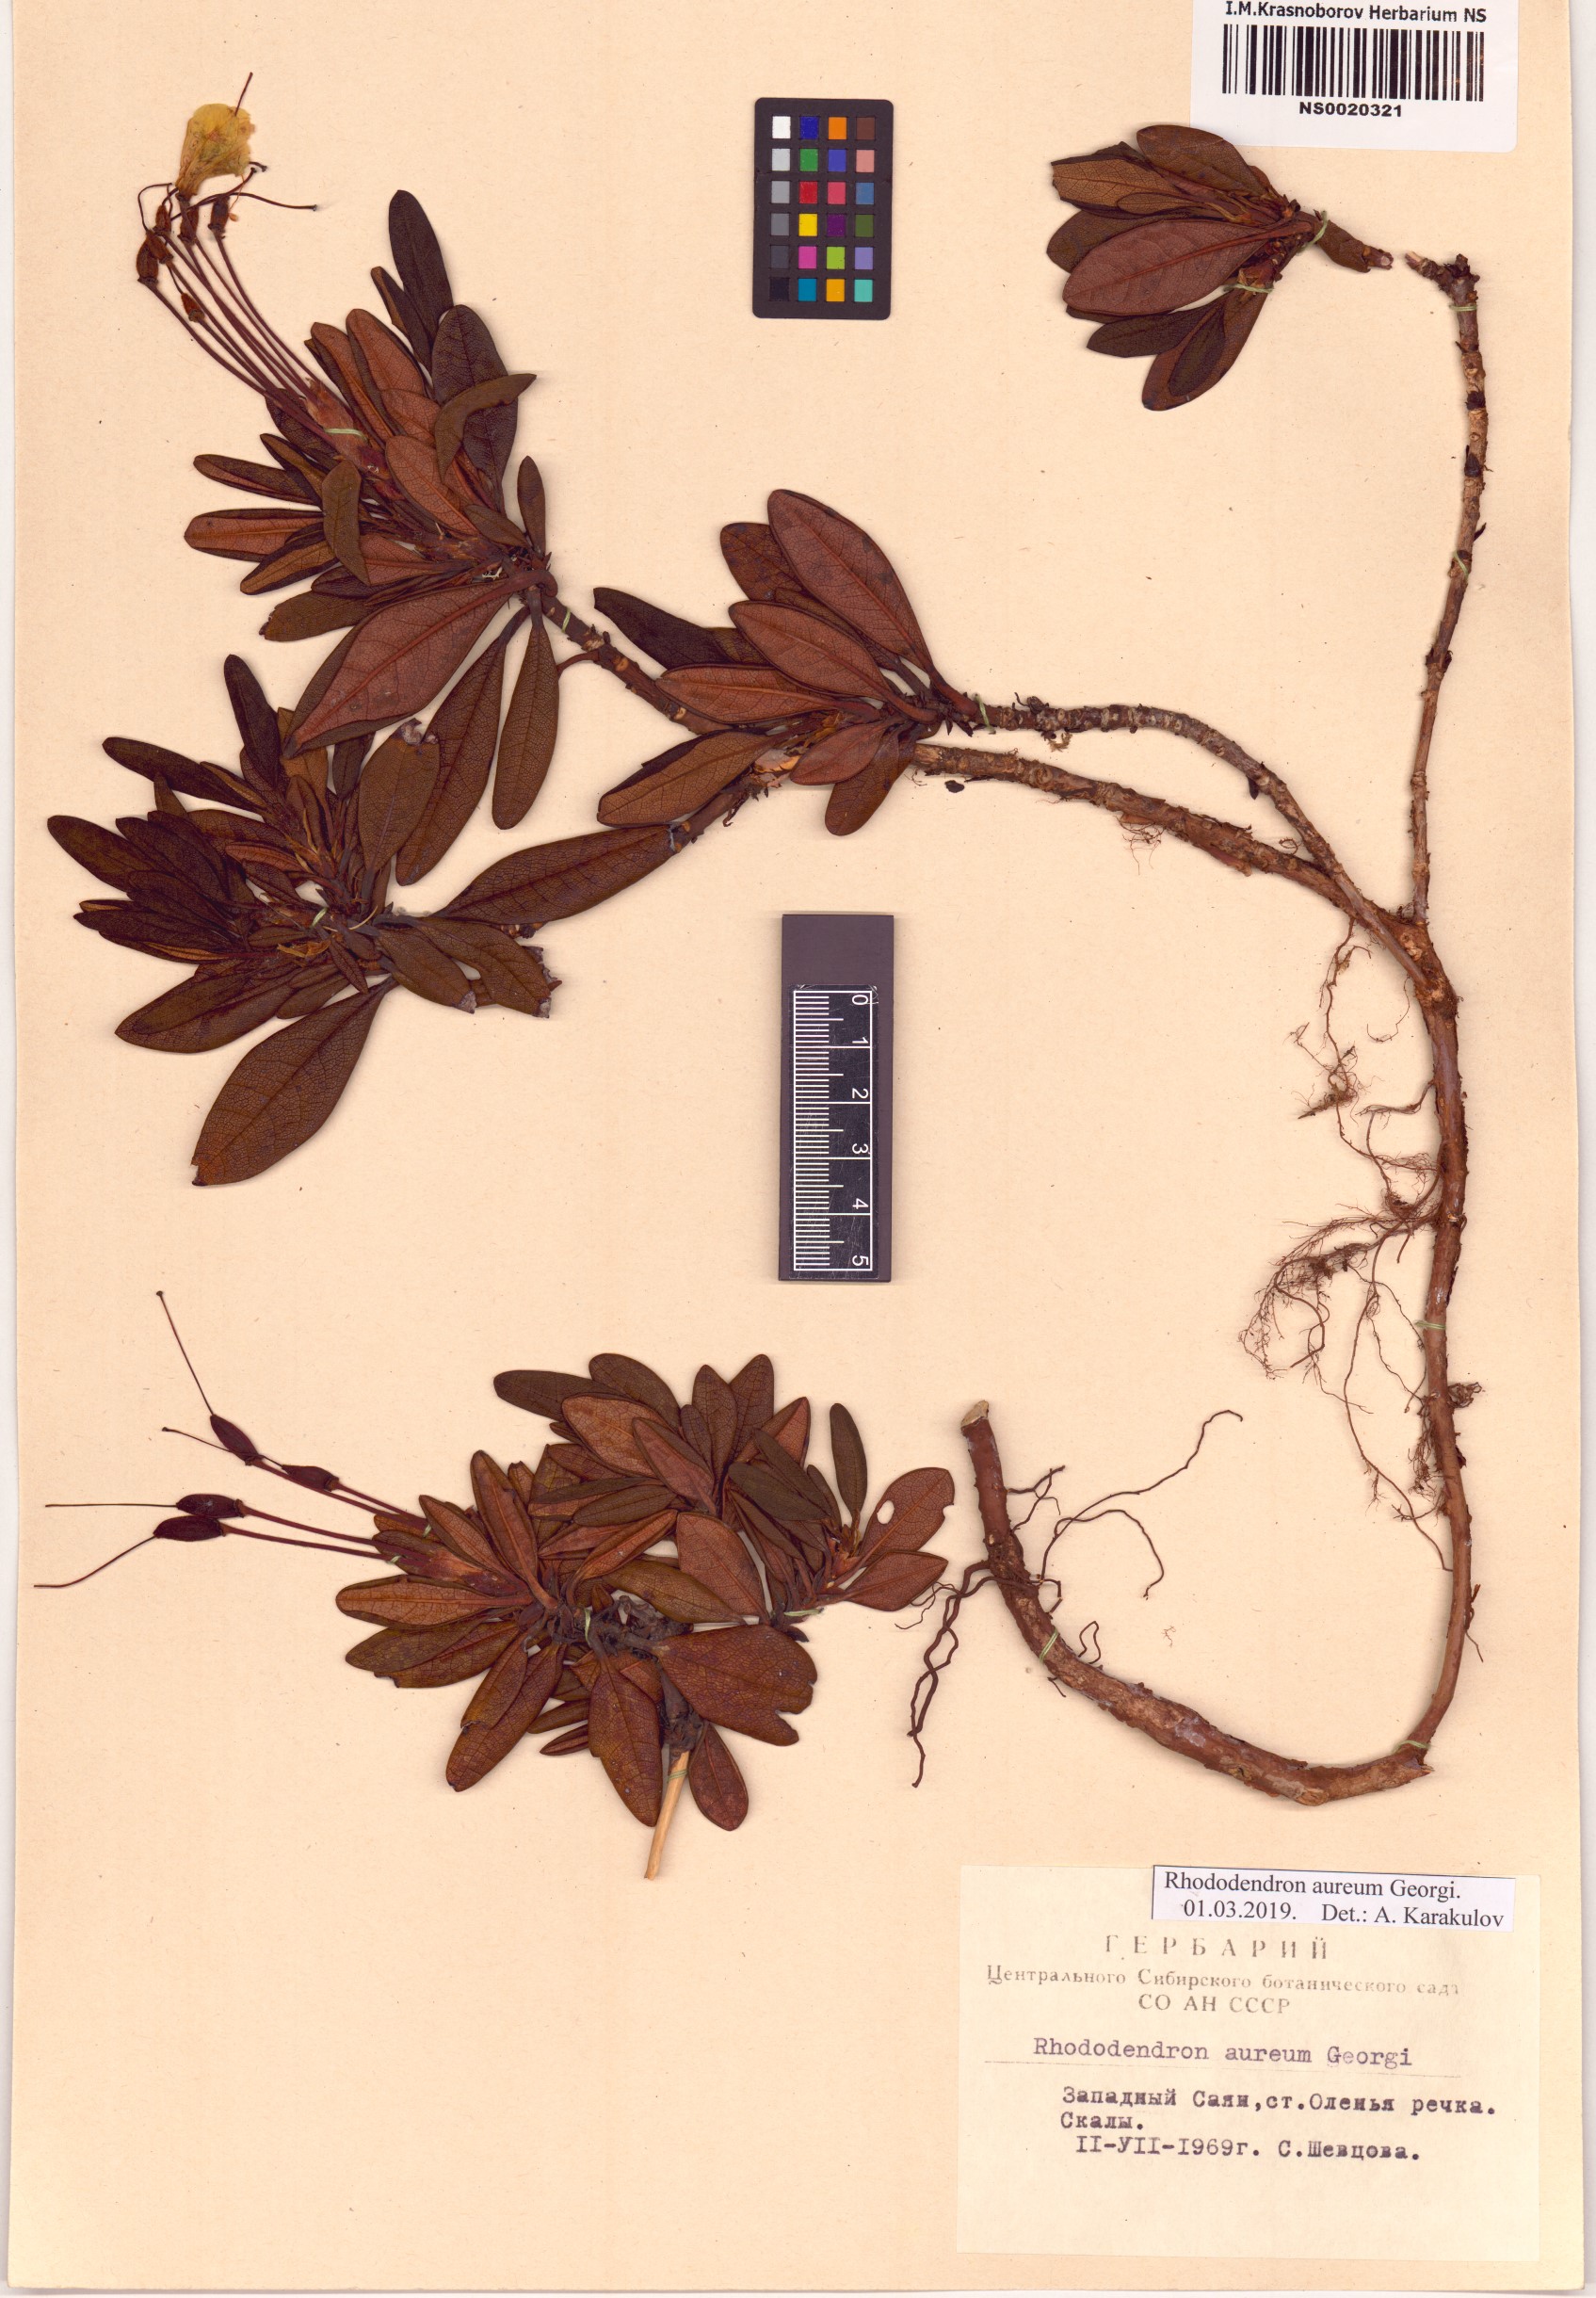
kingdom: Plantae
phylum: Tracheophyta
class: Magnoliopsida
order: Ericales
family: Ericaceae
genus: Rhododendron
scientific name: Rhododendron aureum
